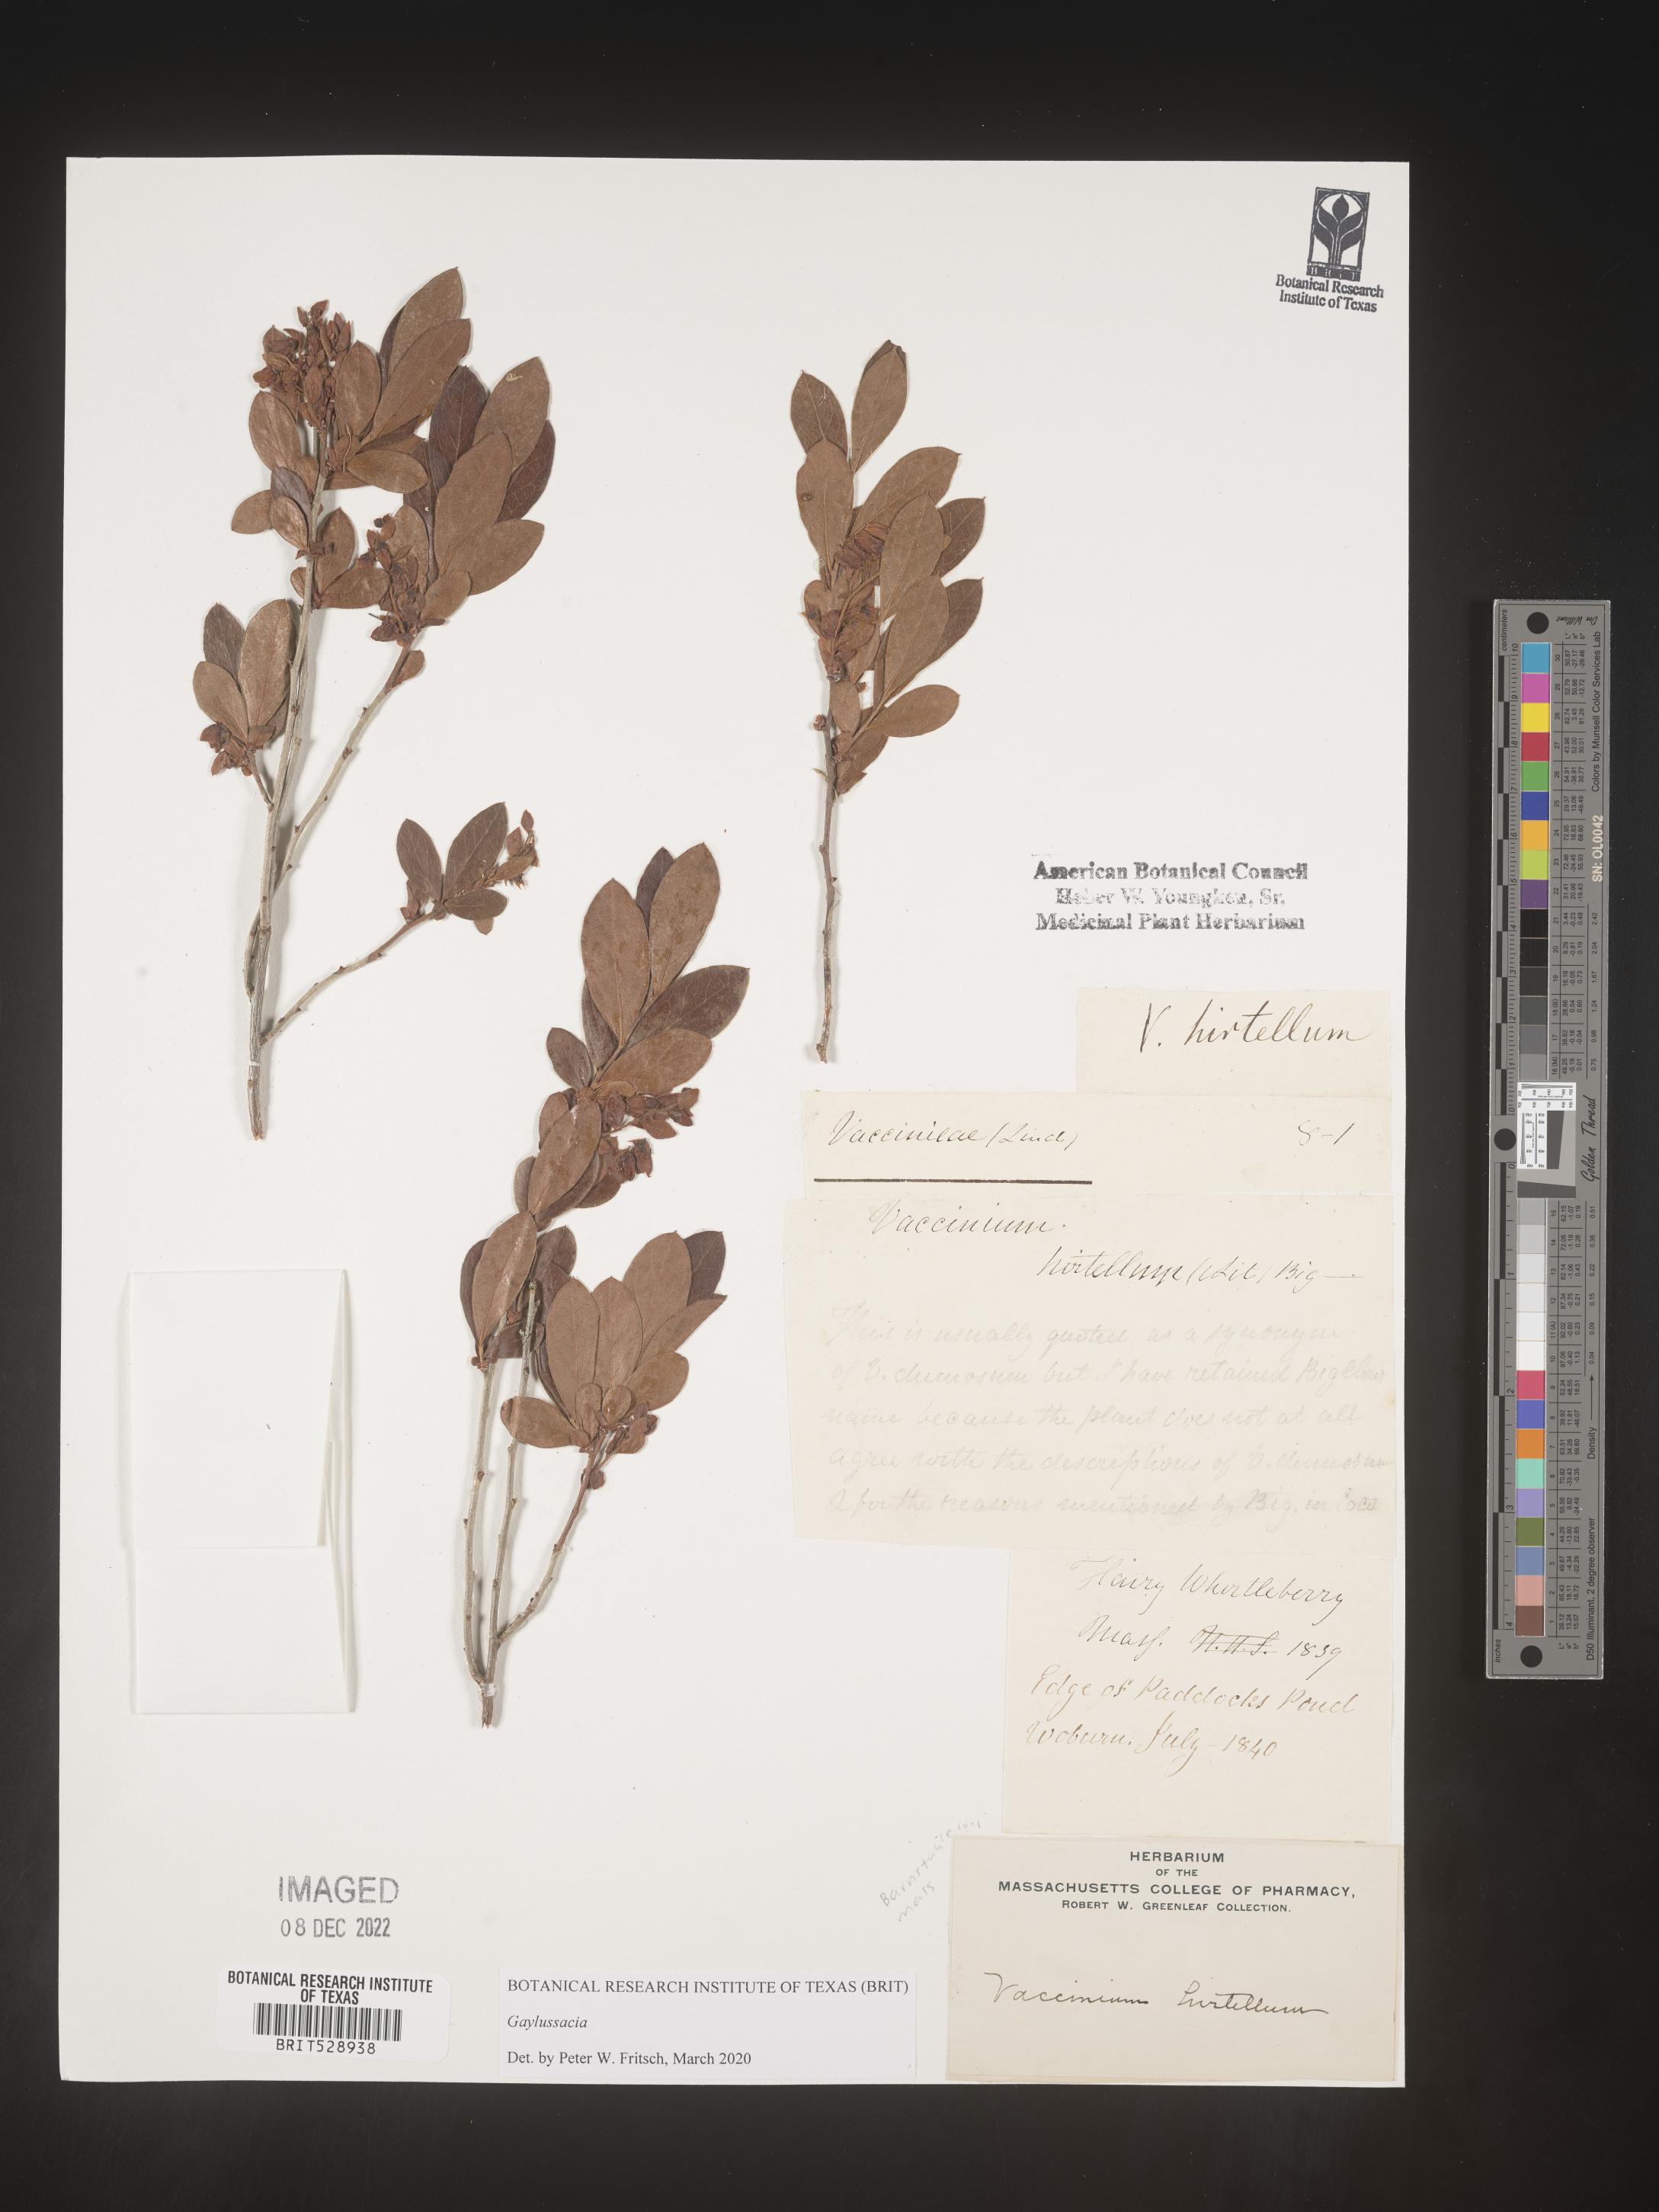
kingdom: Plantae
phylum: Tracheophyta
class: Magnoliopsida
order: Ericales
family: Ericaceae
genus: Gaylussacia
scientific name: Gaylussacia
